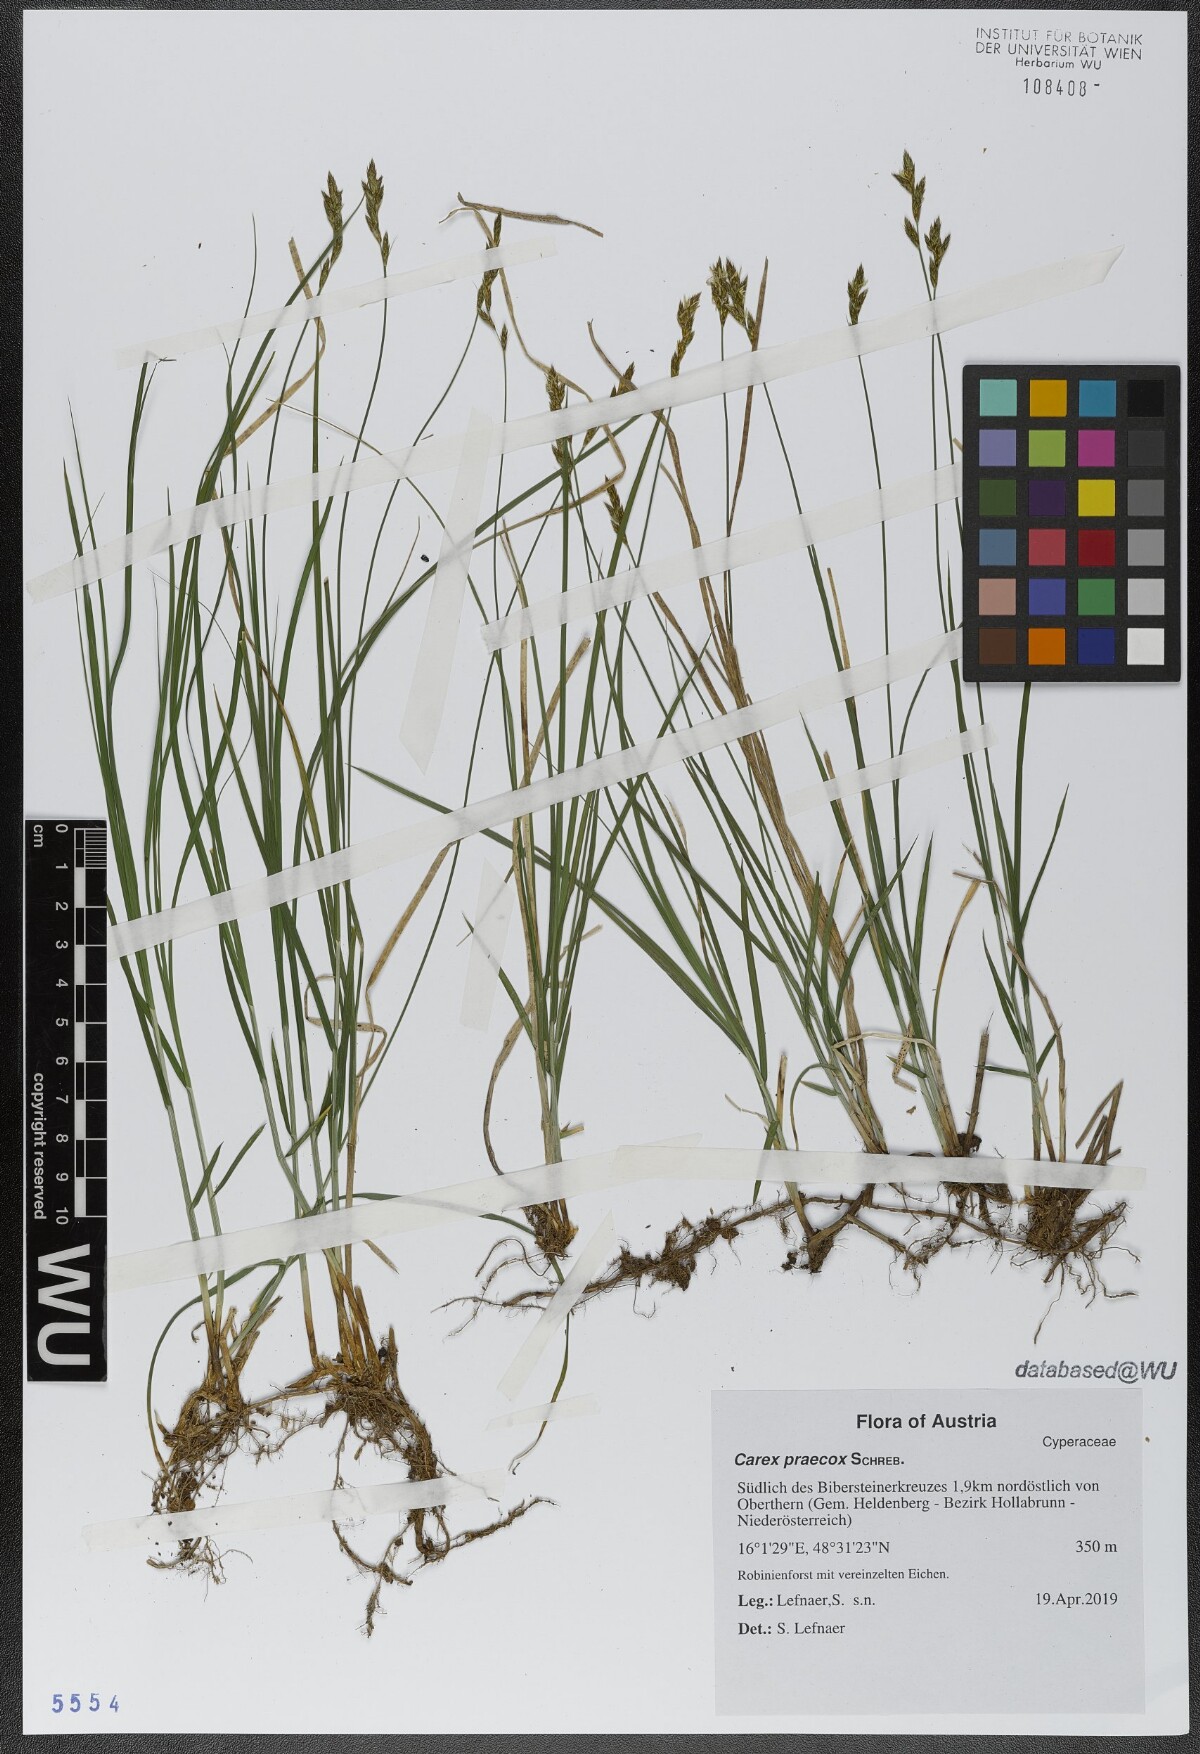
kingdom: Plantae
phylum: Tracheophyta
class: Liliopsida
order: Poales
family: Cyperaceae
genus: Carex
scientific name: Carex praecox
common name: Early sedge
